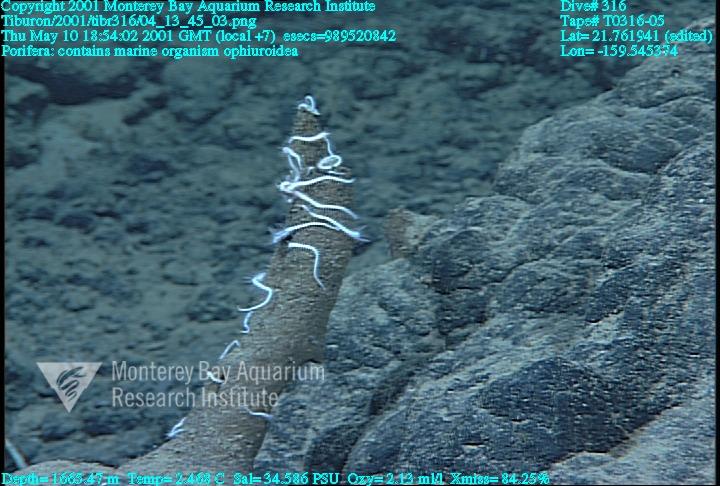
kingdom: Animalia
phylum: Porifera
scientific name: Porifera
